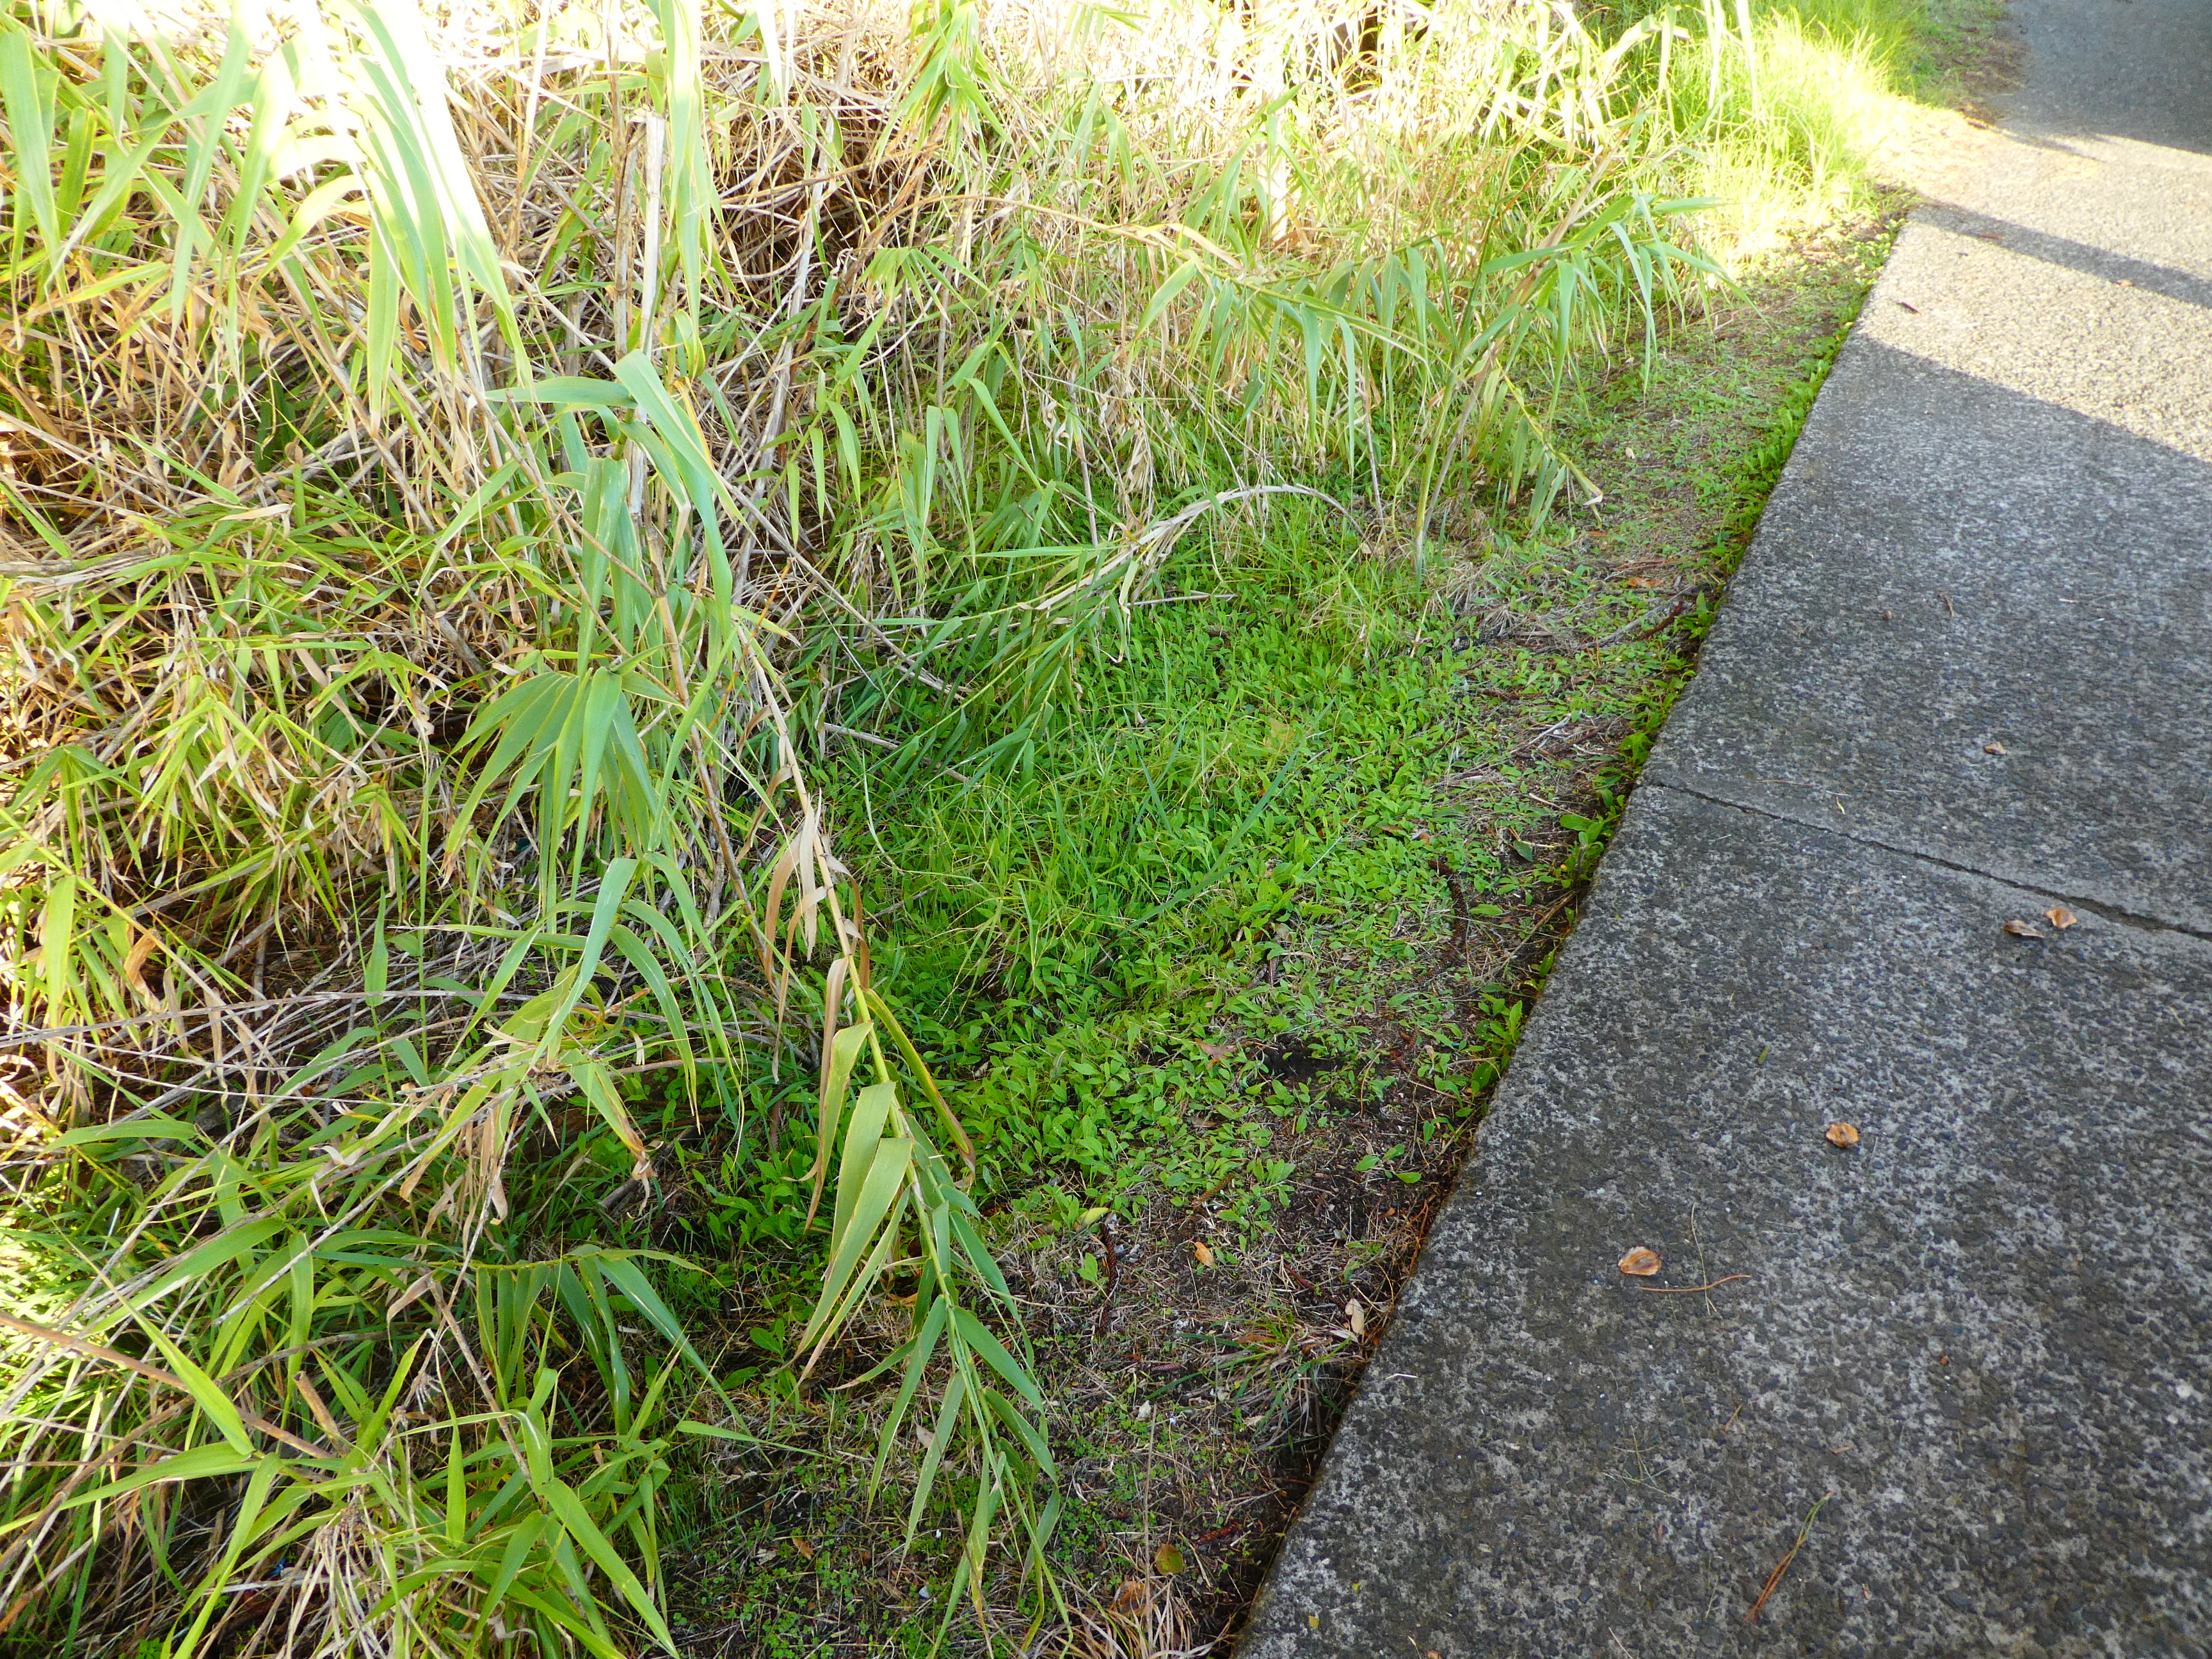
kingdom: Plantae
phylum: Tracheophyta
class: Magnoliopsida
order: Asterales
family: Asteraceae
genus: Aetheorhiza
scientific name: Aetheorhiza bulbosa
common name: Tuberous hawk's-beard
